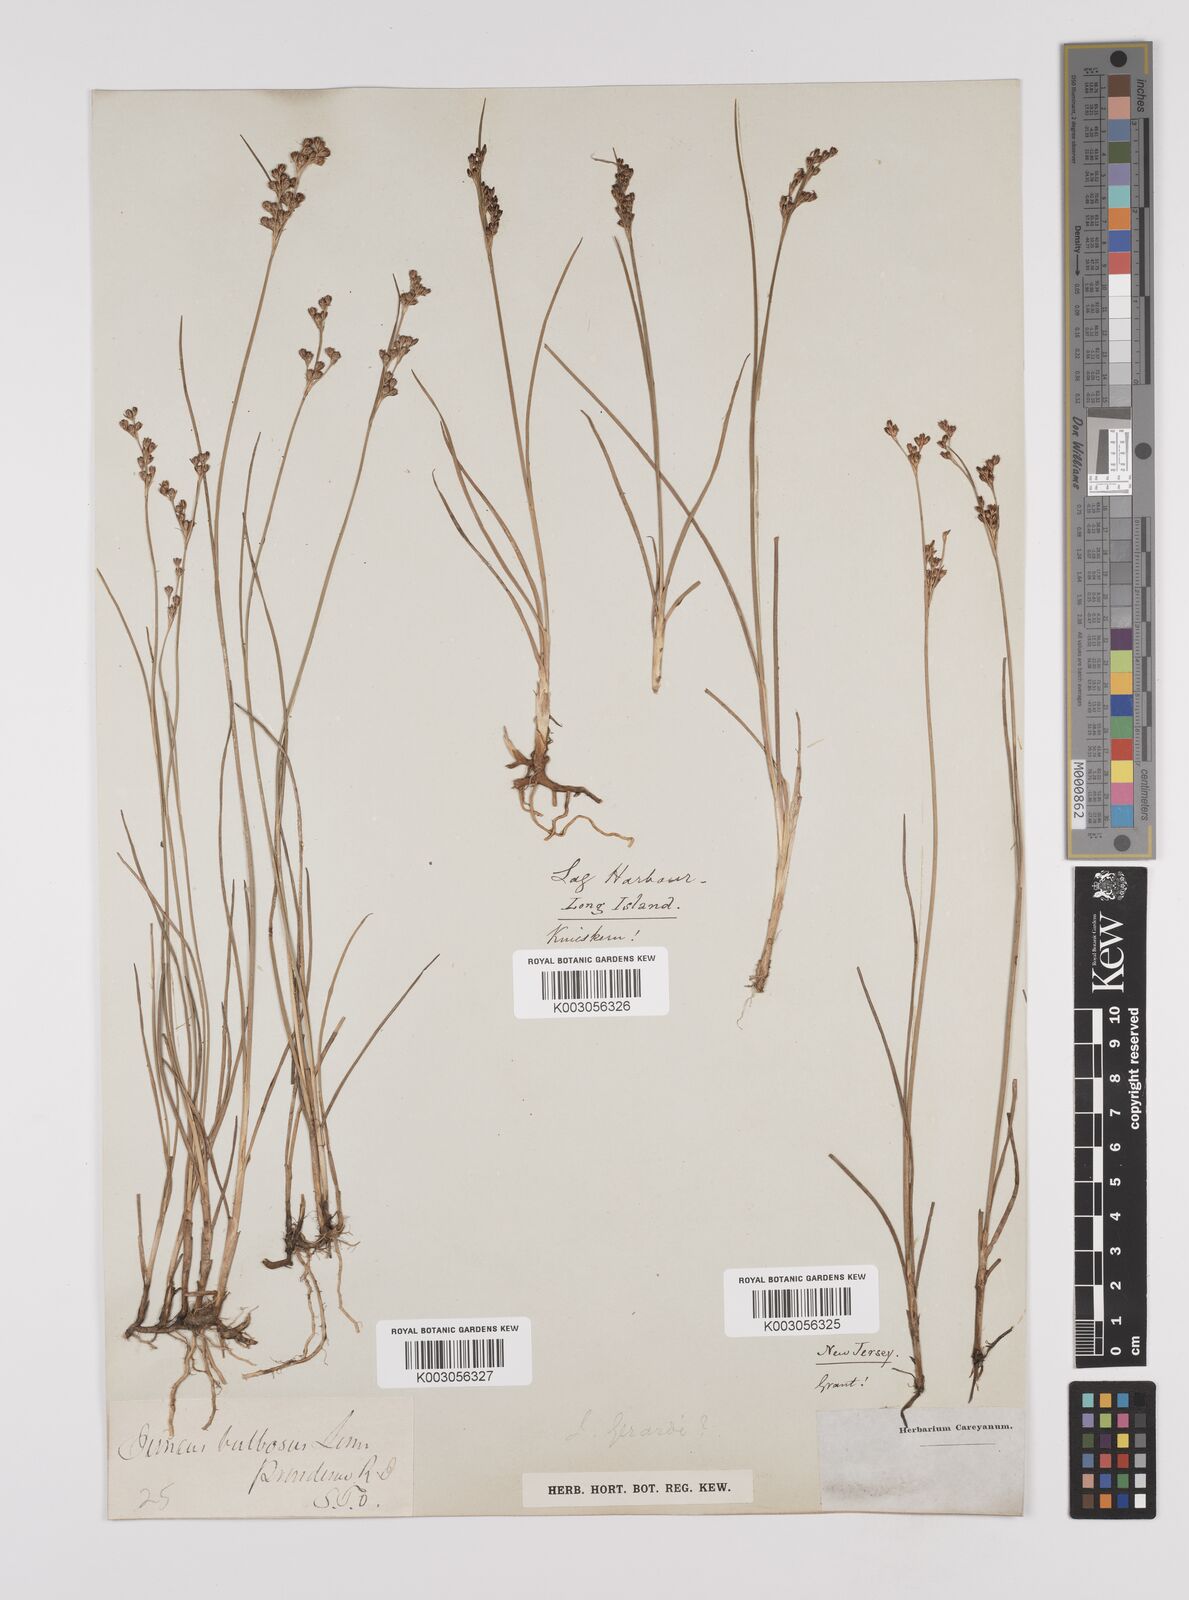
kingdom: Plantae
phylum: Tracheophyta
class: Liliopsida
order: Poales
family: Juncaceae
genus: Juncus
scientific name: Juncus gerardi
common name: Saltmarsh rush
